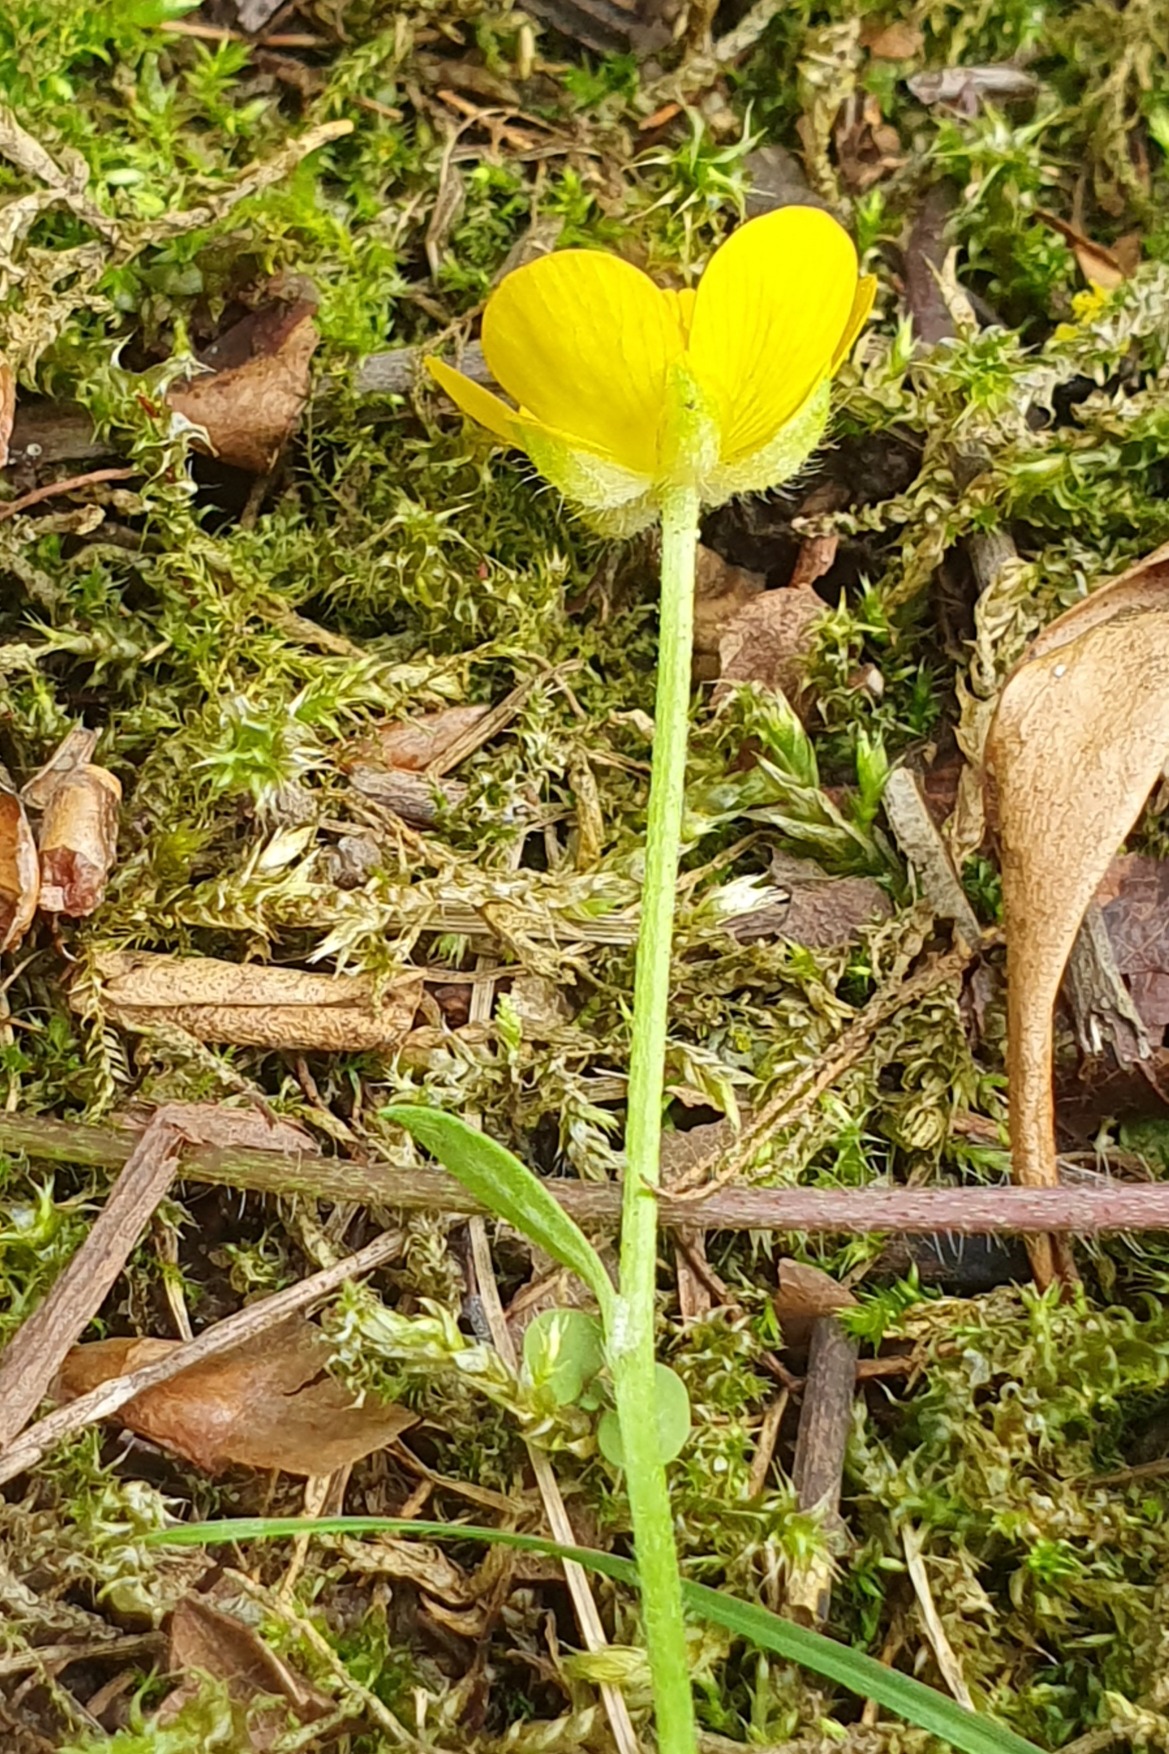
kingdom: Plantae
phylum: Tracheophyta
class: Magnoliopsida
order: Ranunculales
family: Ranunculaceae
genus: Ranunculus
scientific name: Ranunculus repens
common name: Lav ranunkel
